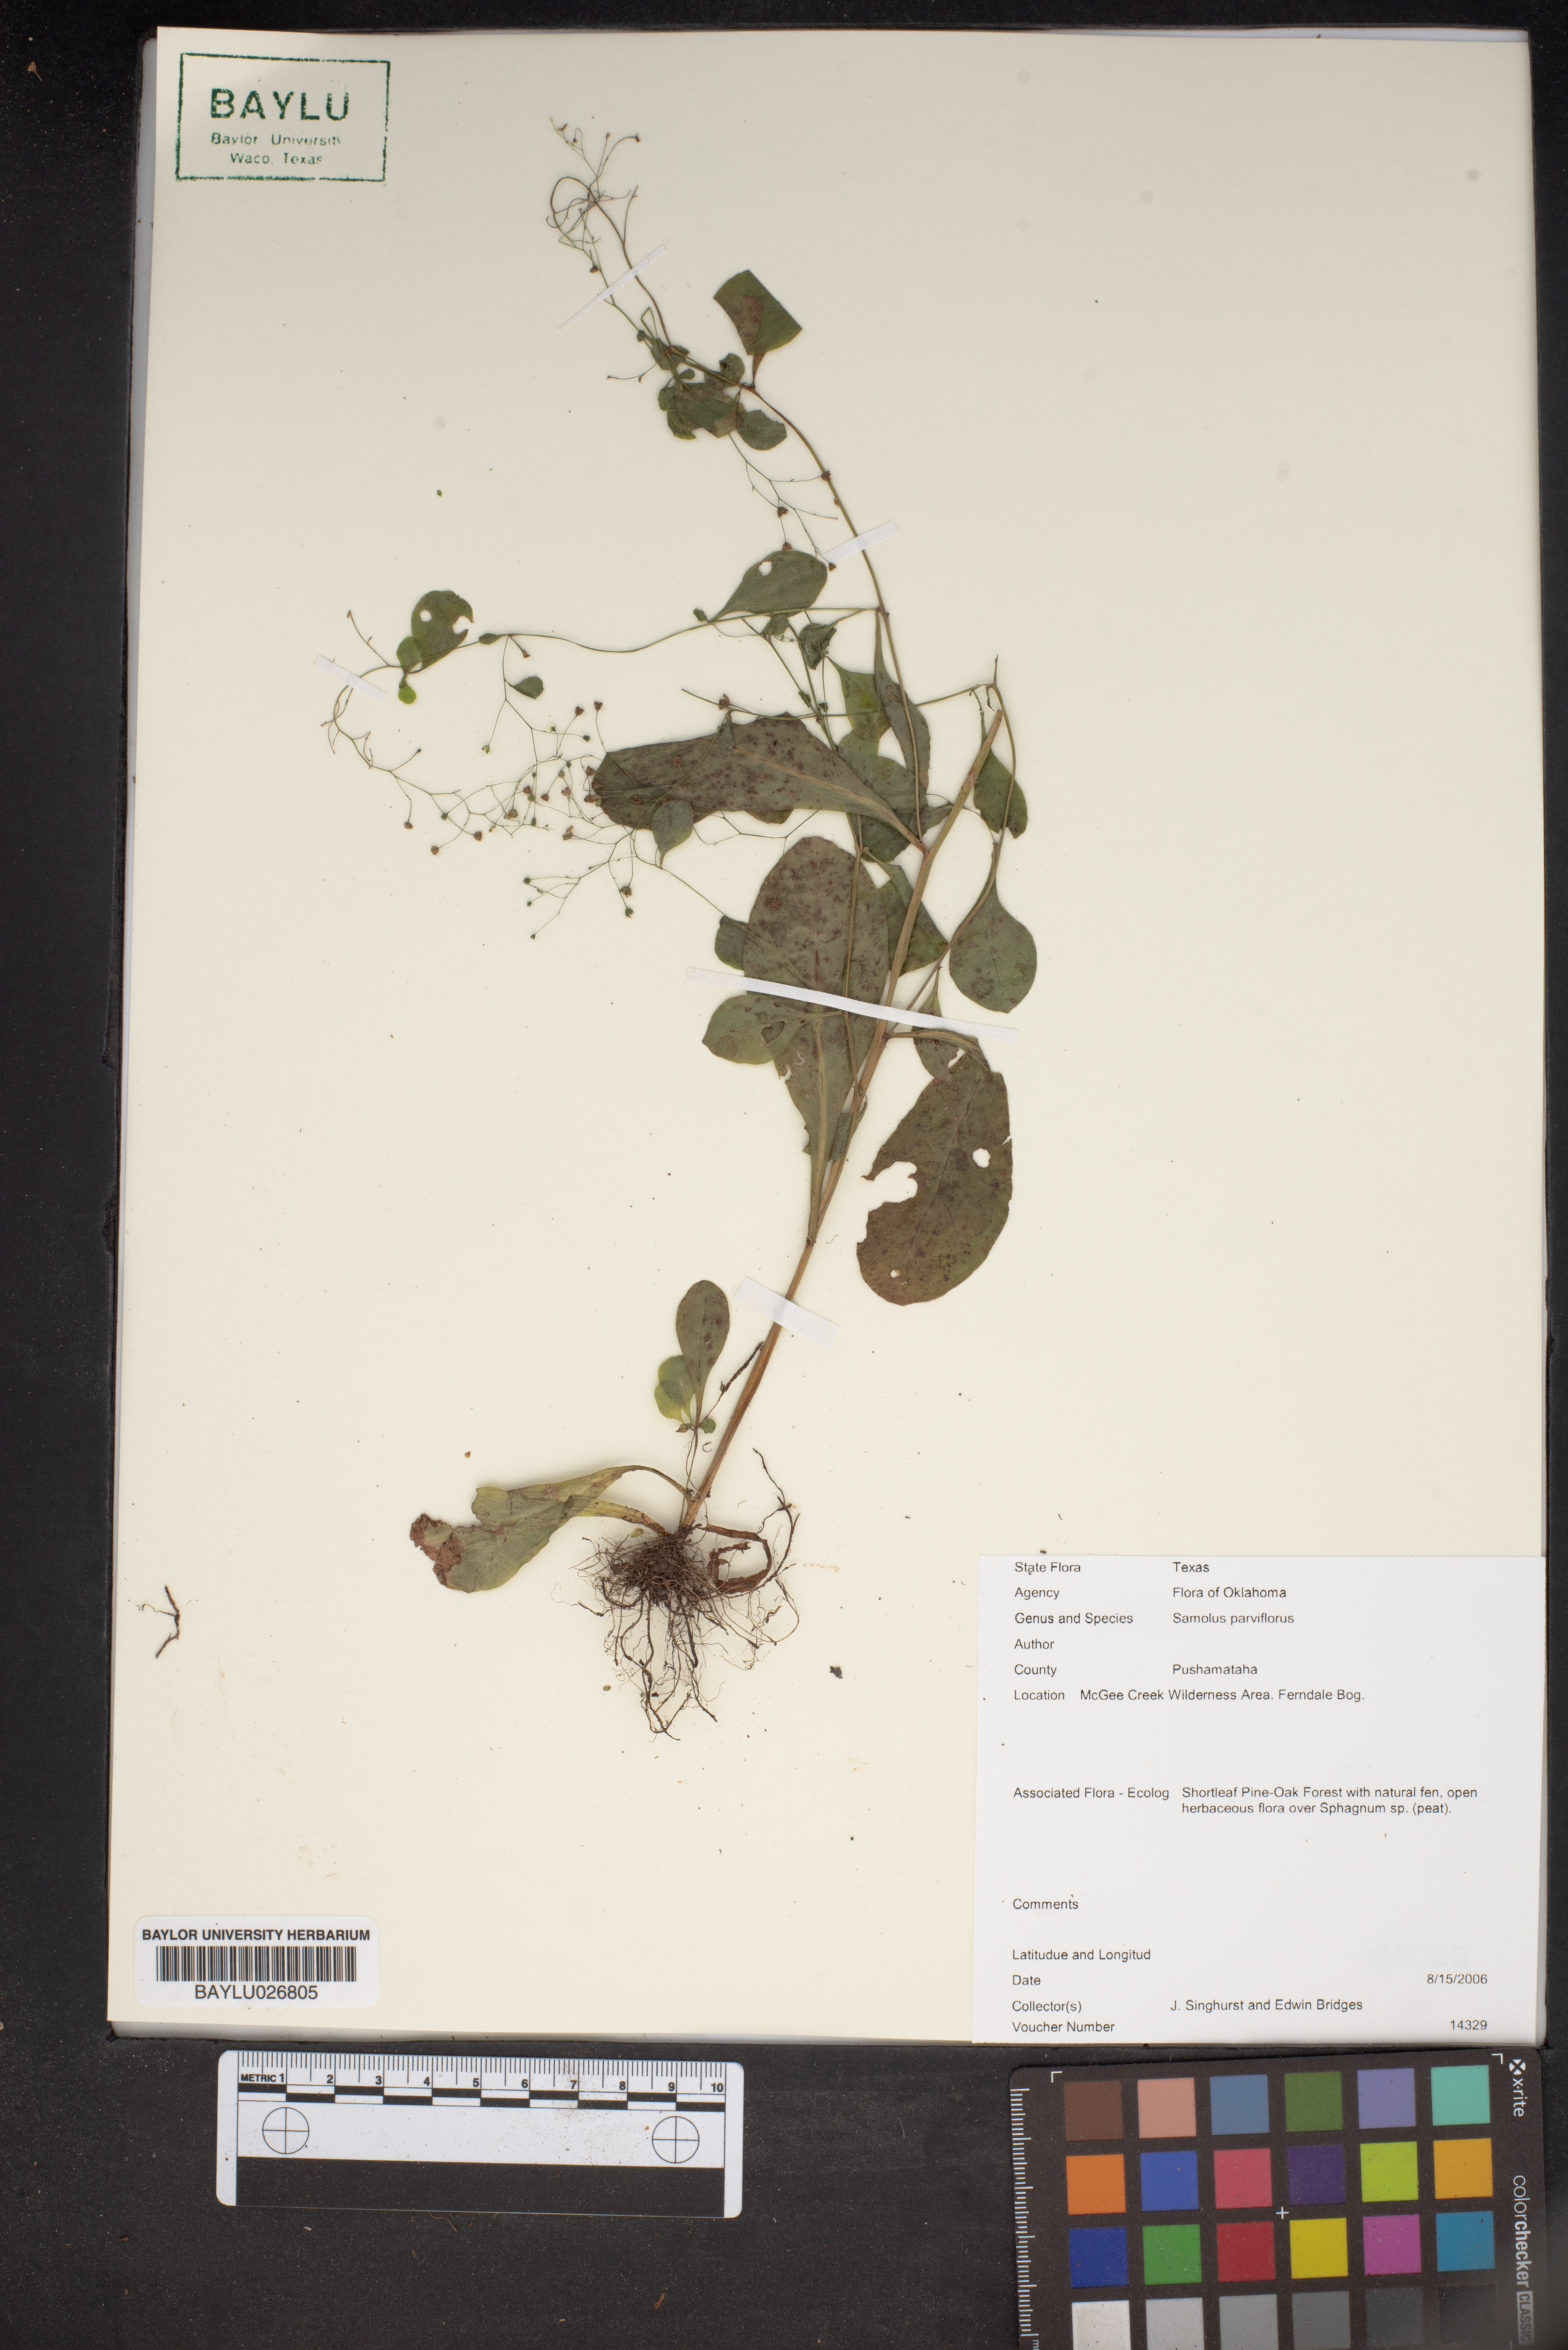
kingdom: Plantae
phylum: Tracheophyta
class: Magnoliopsida
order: Ericales
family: Primulaceae
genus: Samolus
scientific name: Samolus parviflorus
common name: False water pimpernel
